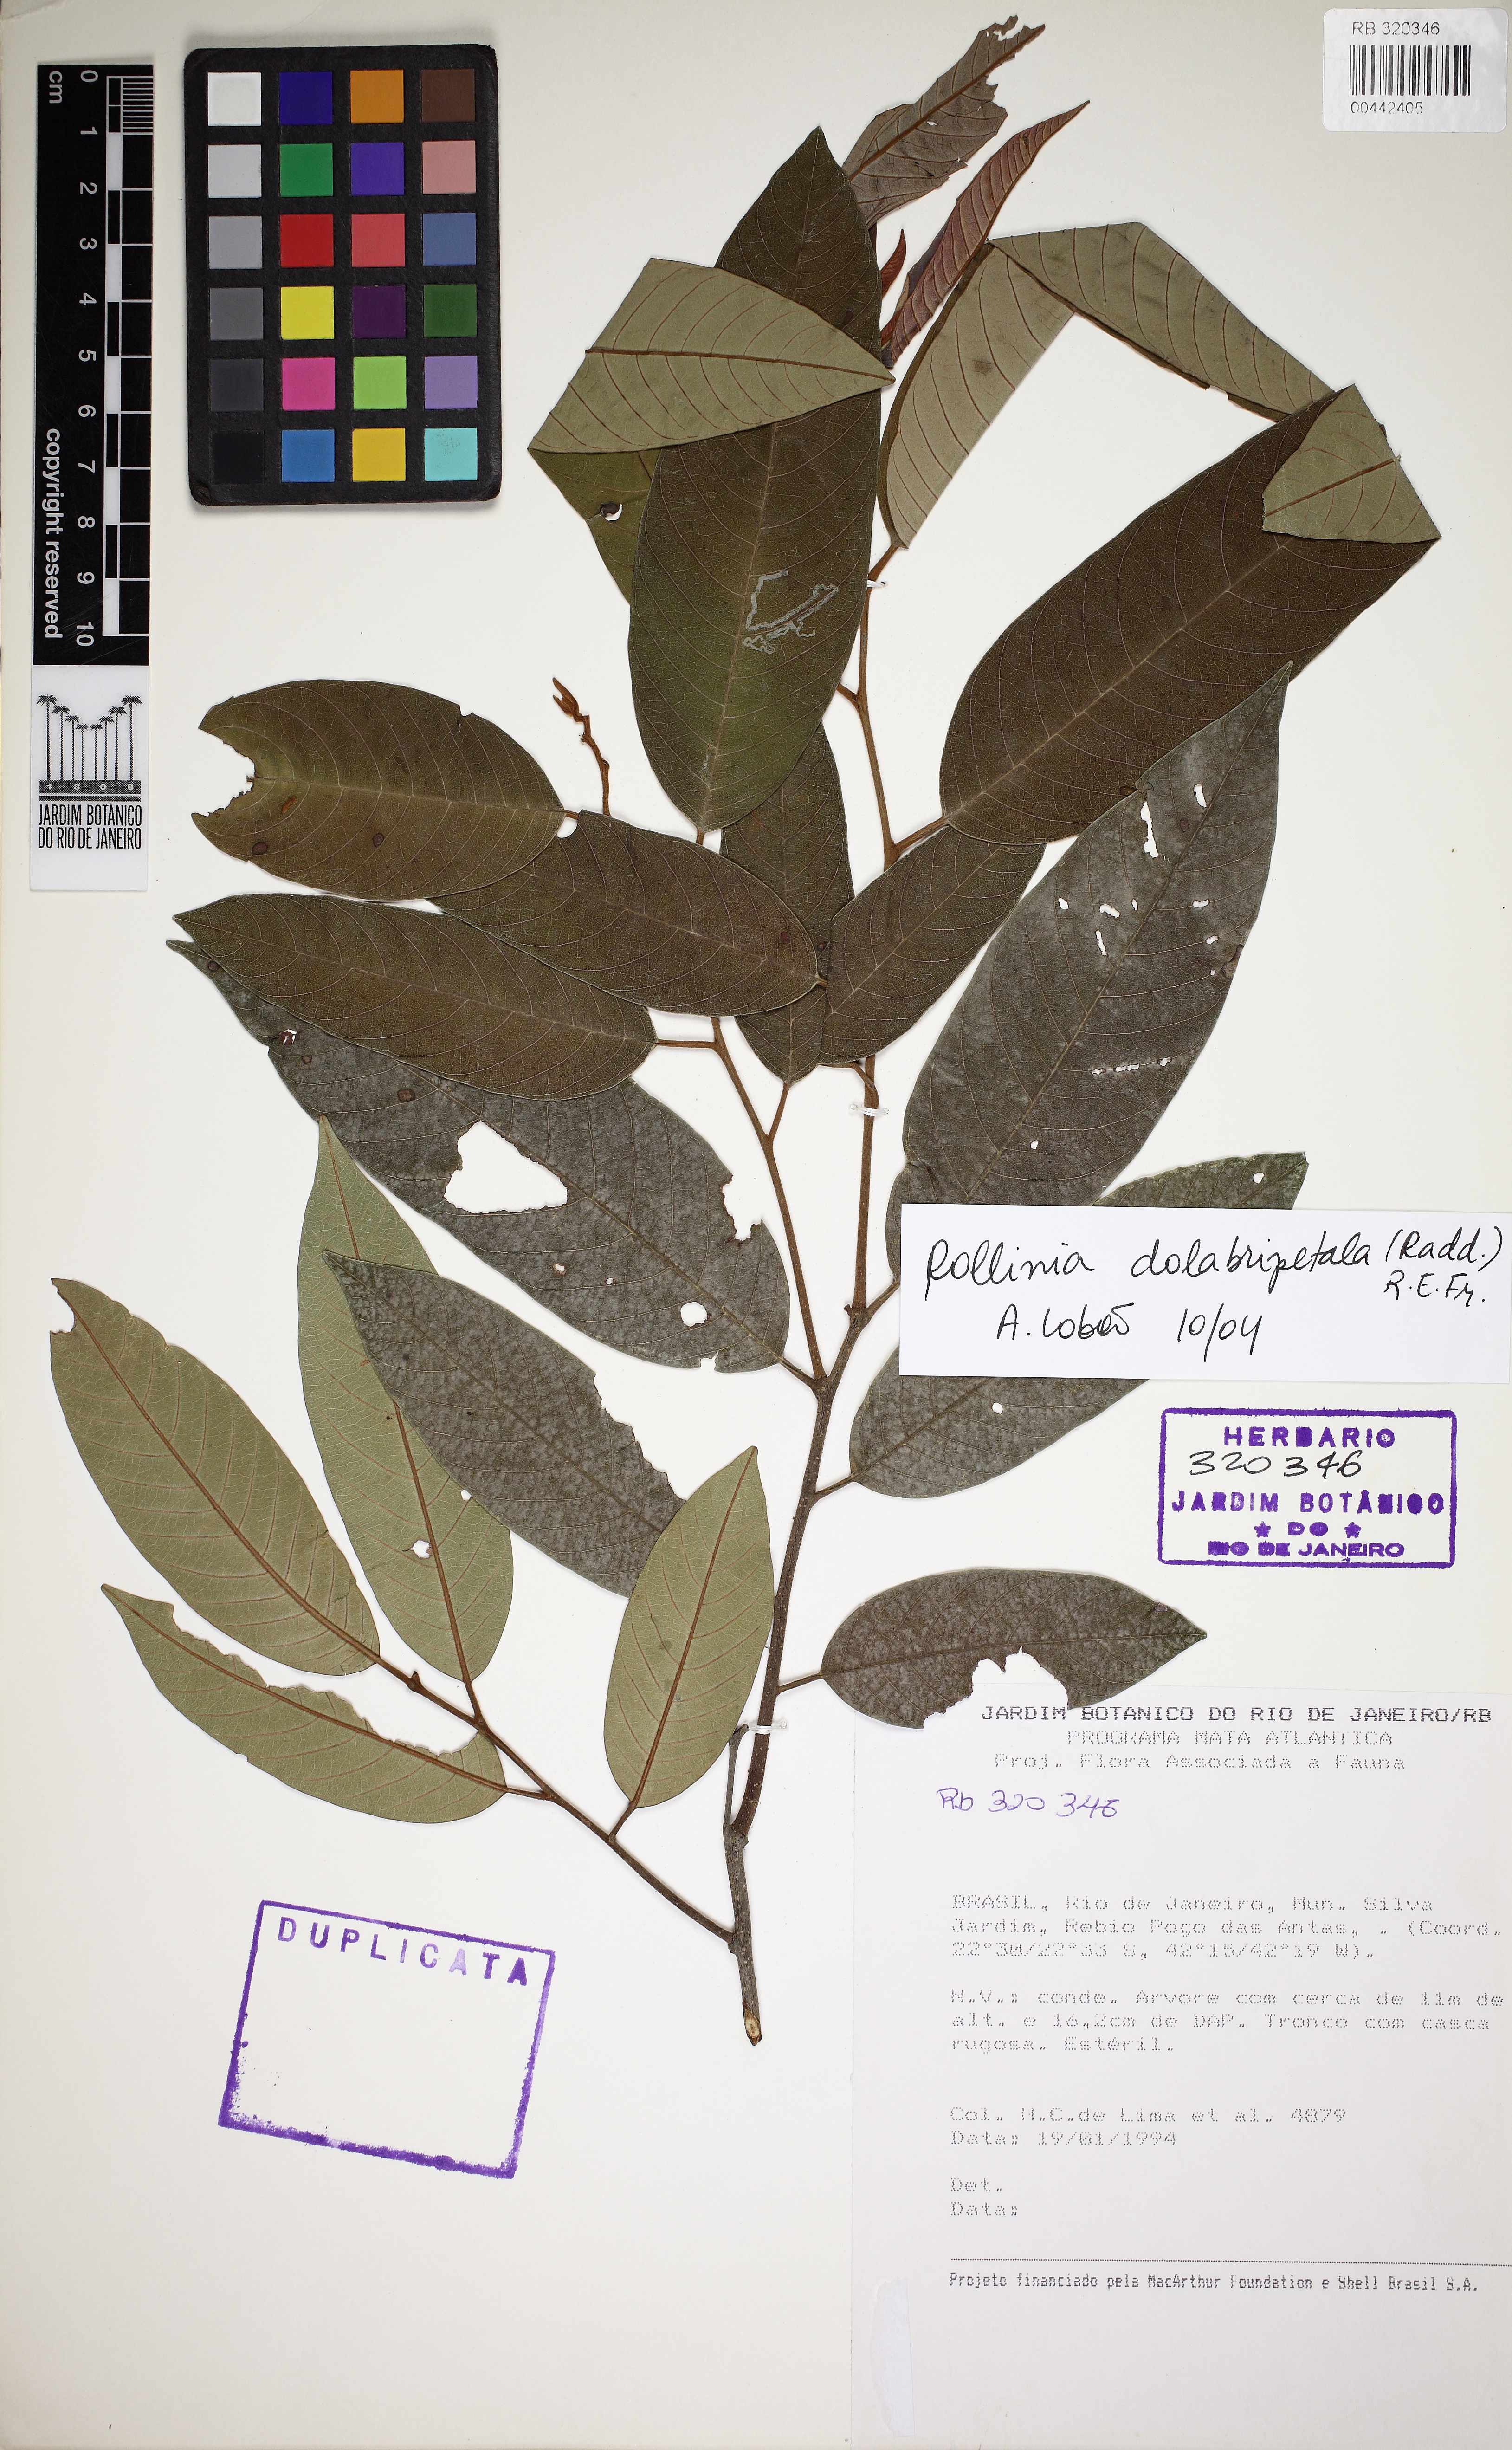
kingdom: Plantae
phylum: Tracheophyta
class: Magnoliopsida
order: Magnoliales
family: Annonaceae
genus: Annona
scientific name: Annona dolabripetala
